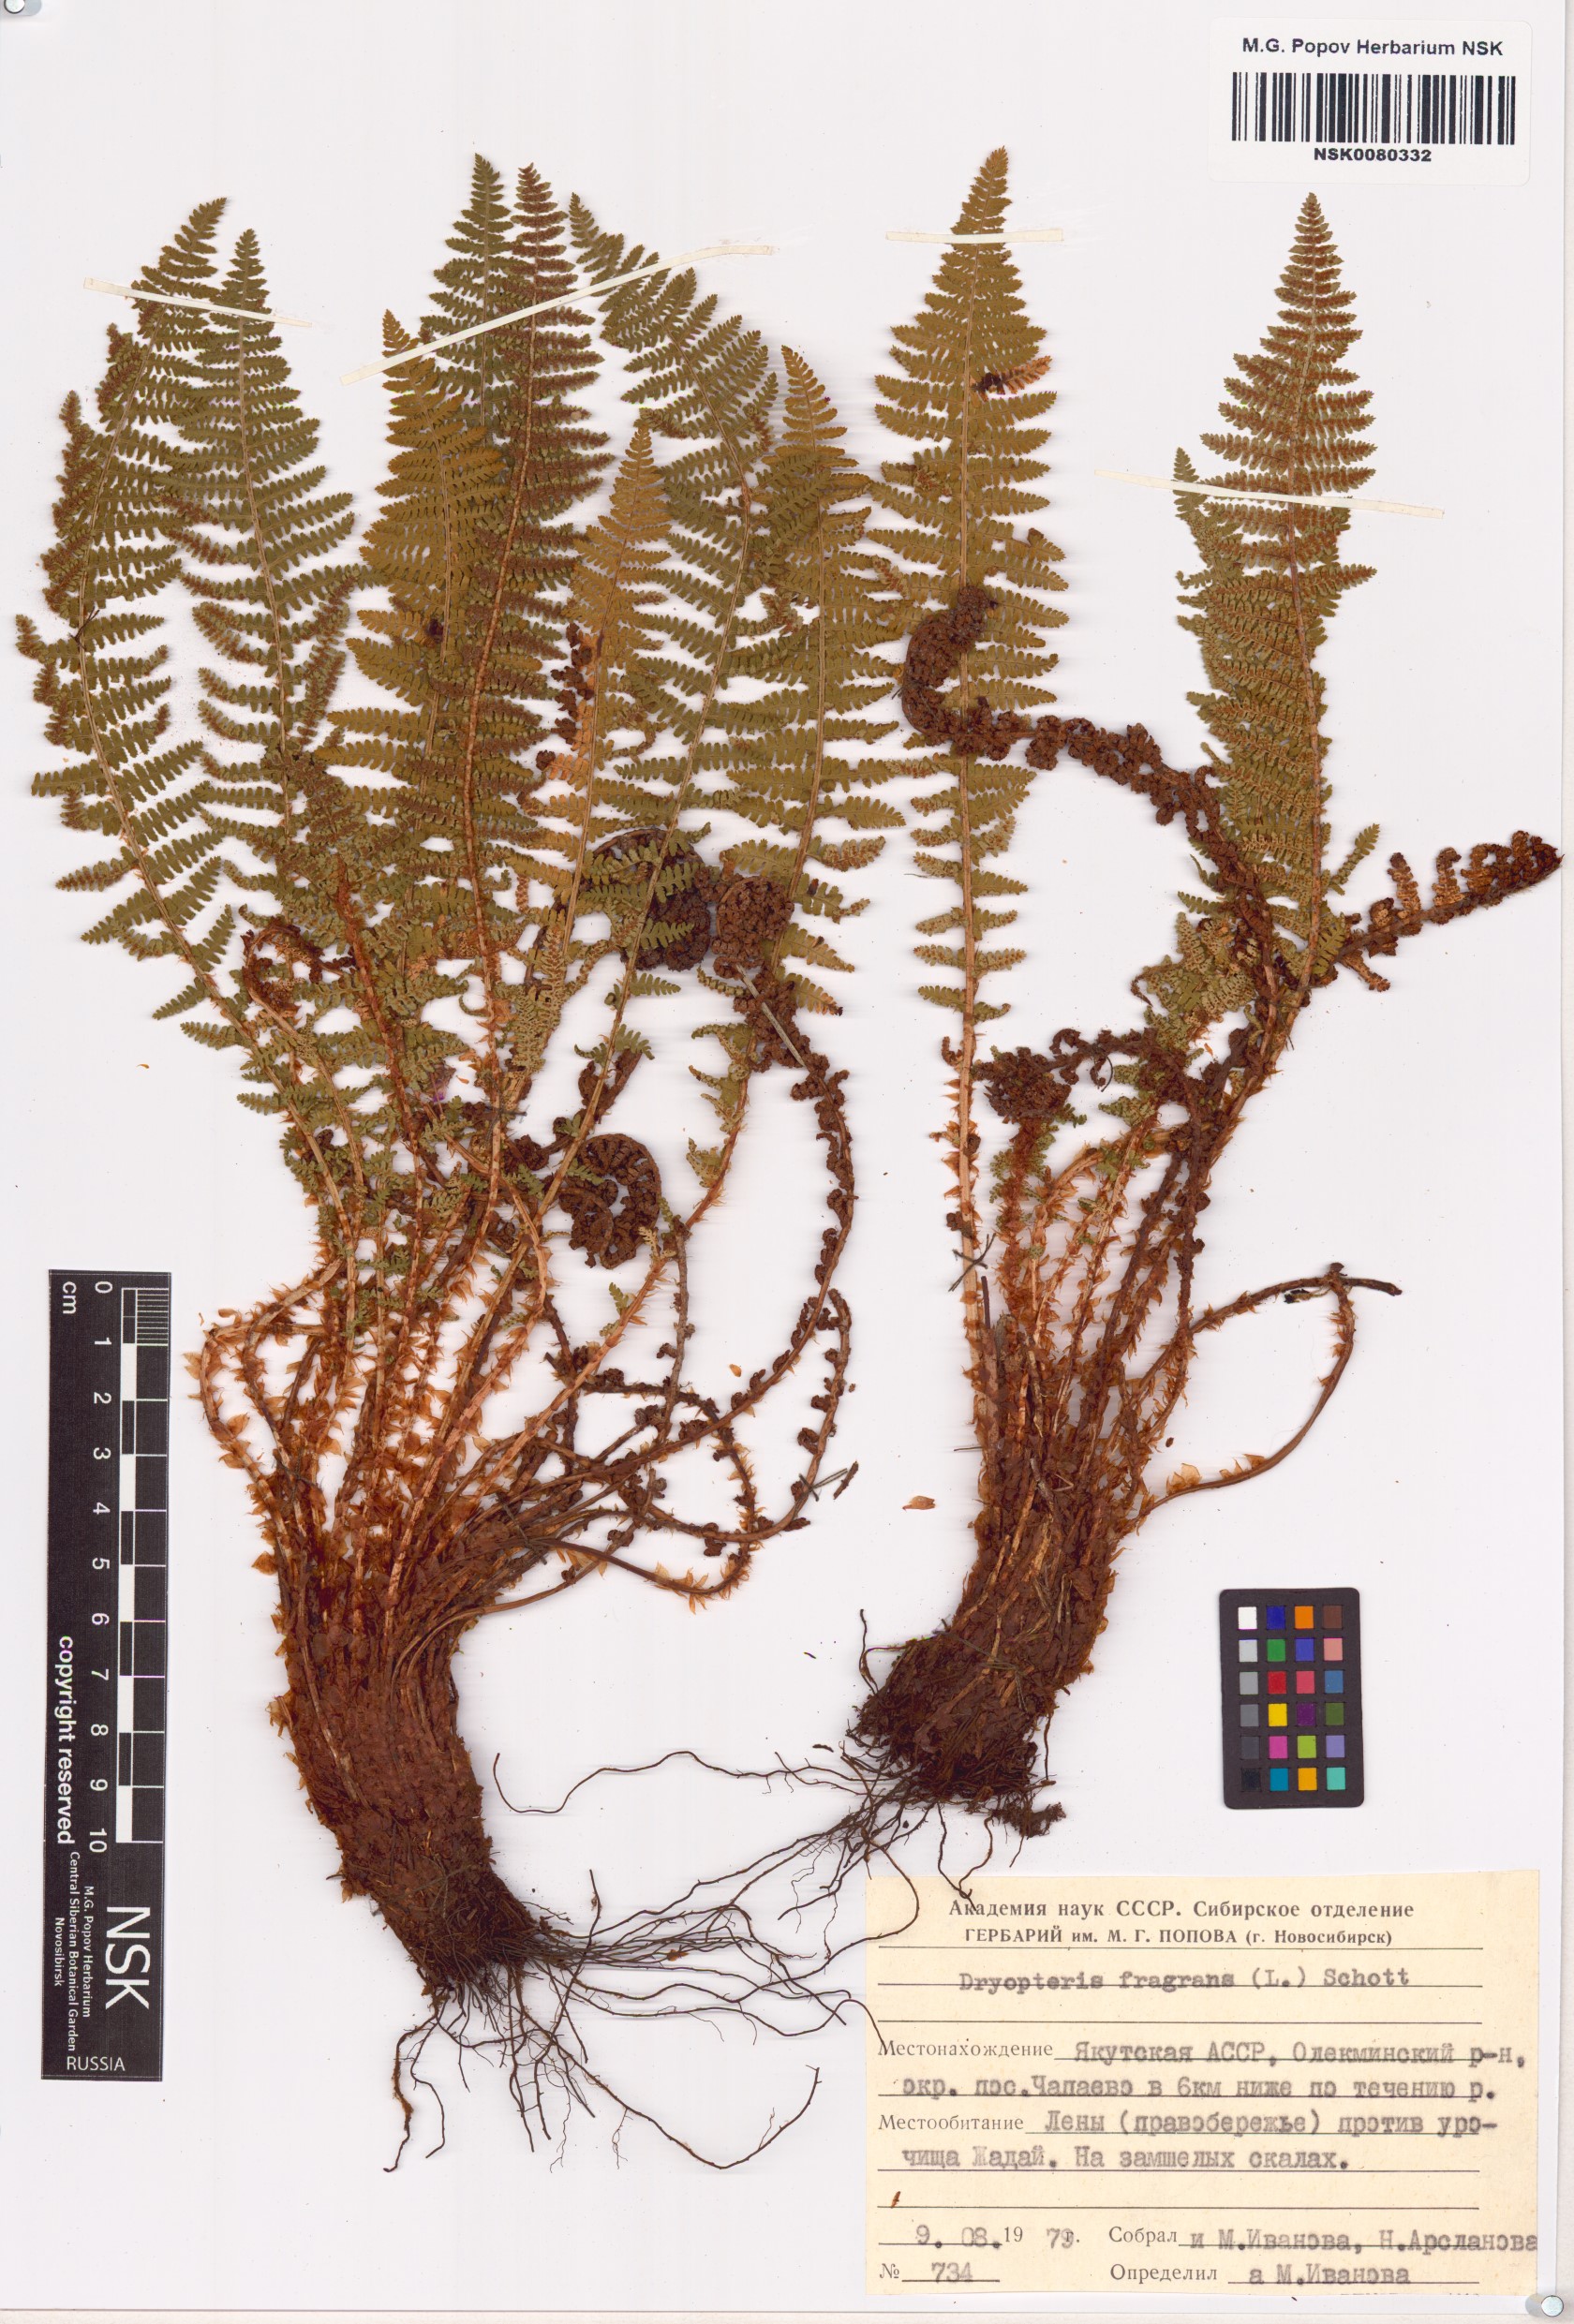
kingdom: Plantae
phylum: Tracheophyta
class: Polypodiopsida
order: Polypodiales
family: Dryopteridaceae
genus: Dryopteris
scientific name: Dryopteris fragrans
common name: Fragrant wood fern
